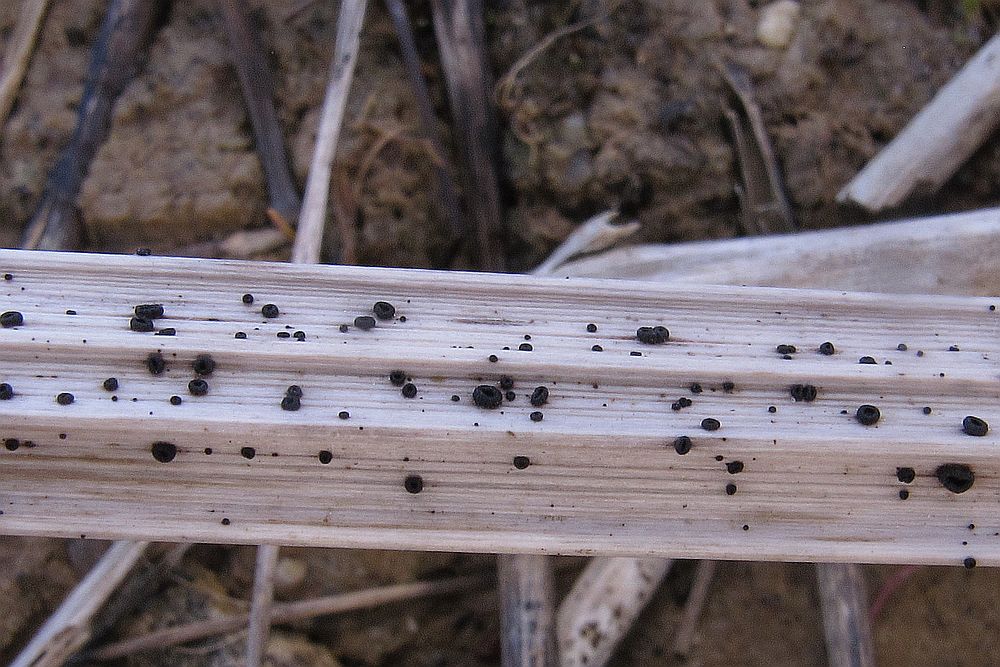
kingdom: Fungi
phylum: Ascomycota
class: Leotiomycetes
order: Helotiales
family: Heterosphaeriaceae
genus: Heterosphaeria
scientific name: Heterosphaeria
